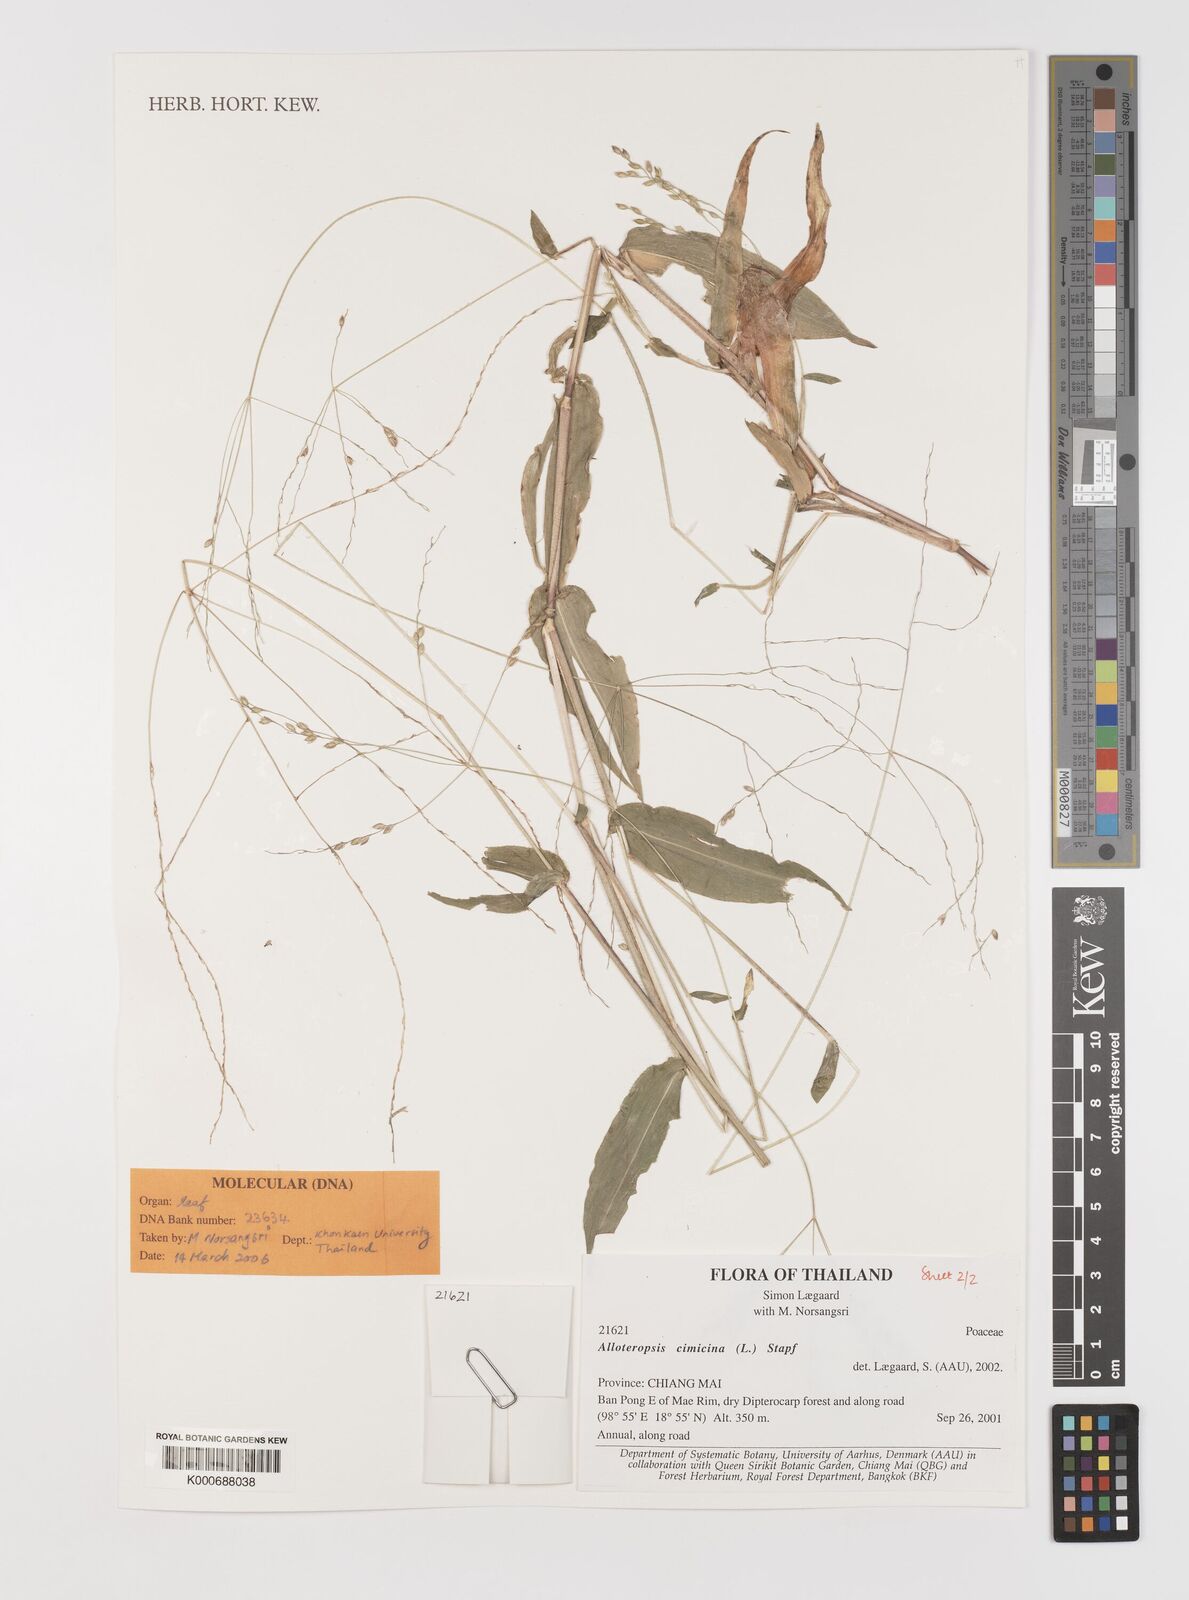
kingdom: Plantae
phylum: Tracheophyta
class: Liliopsida
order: Poales
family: Poaceae
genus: Alloteropsis
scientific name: Alloteropsis cimicina
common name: Summergrass
